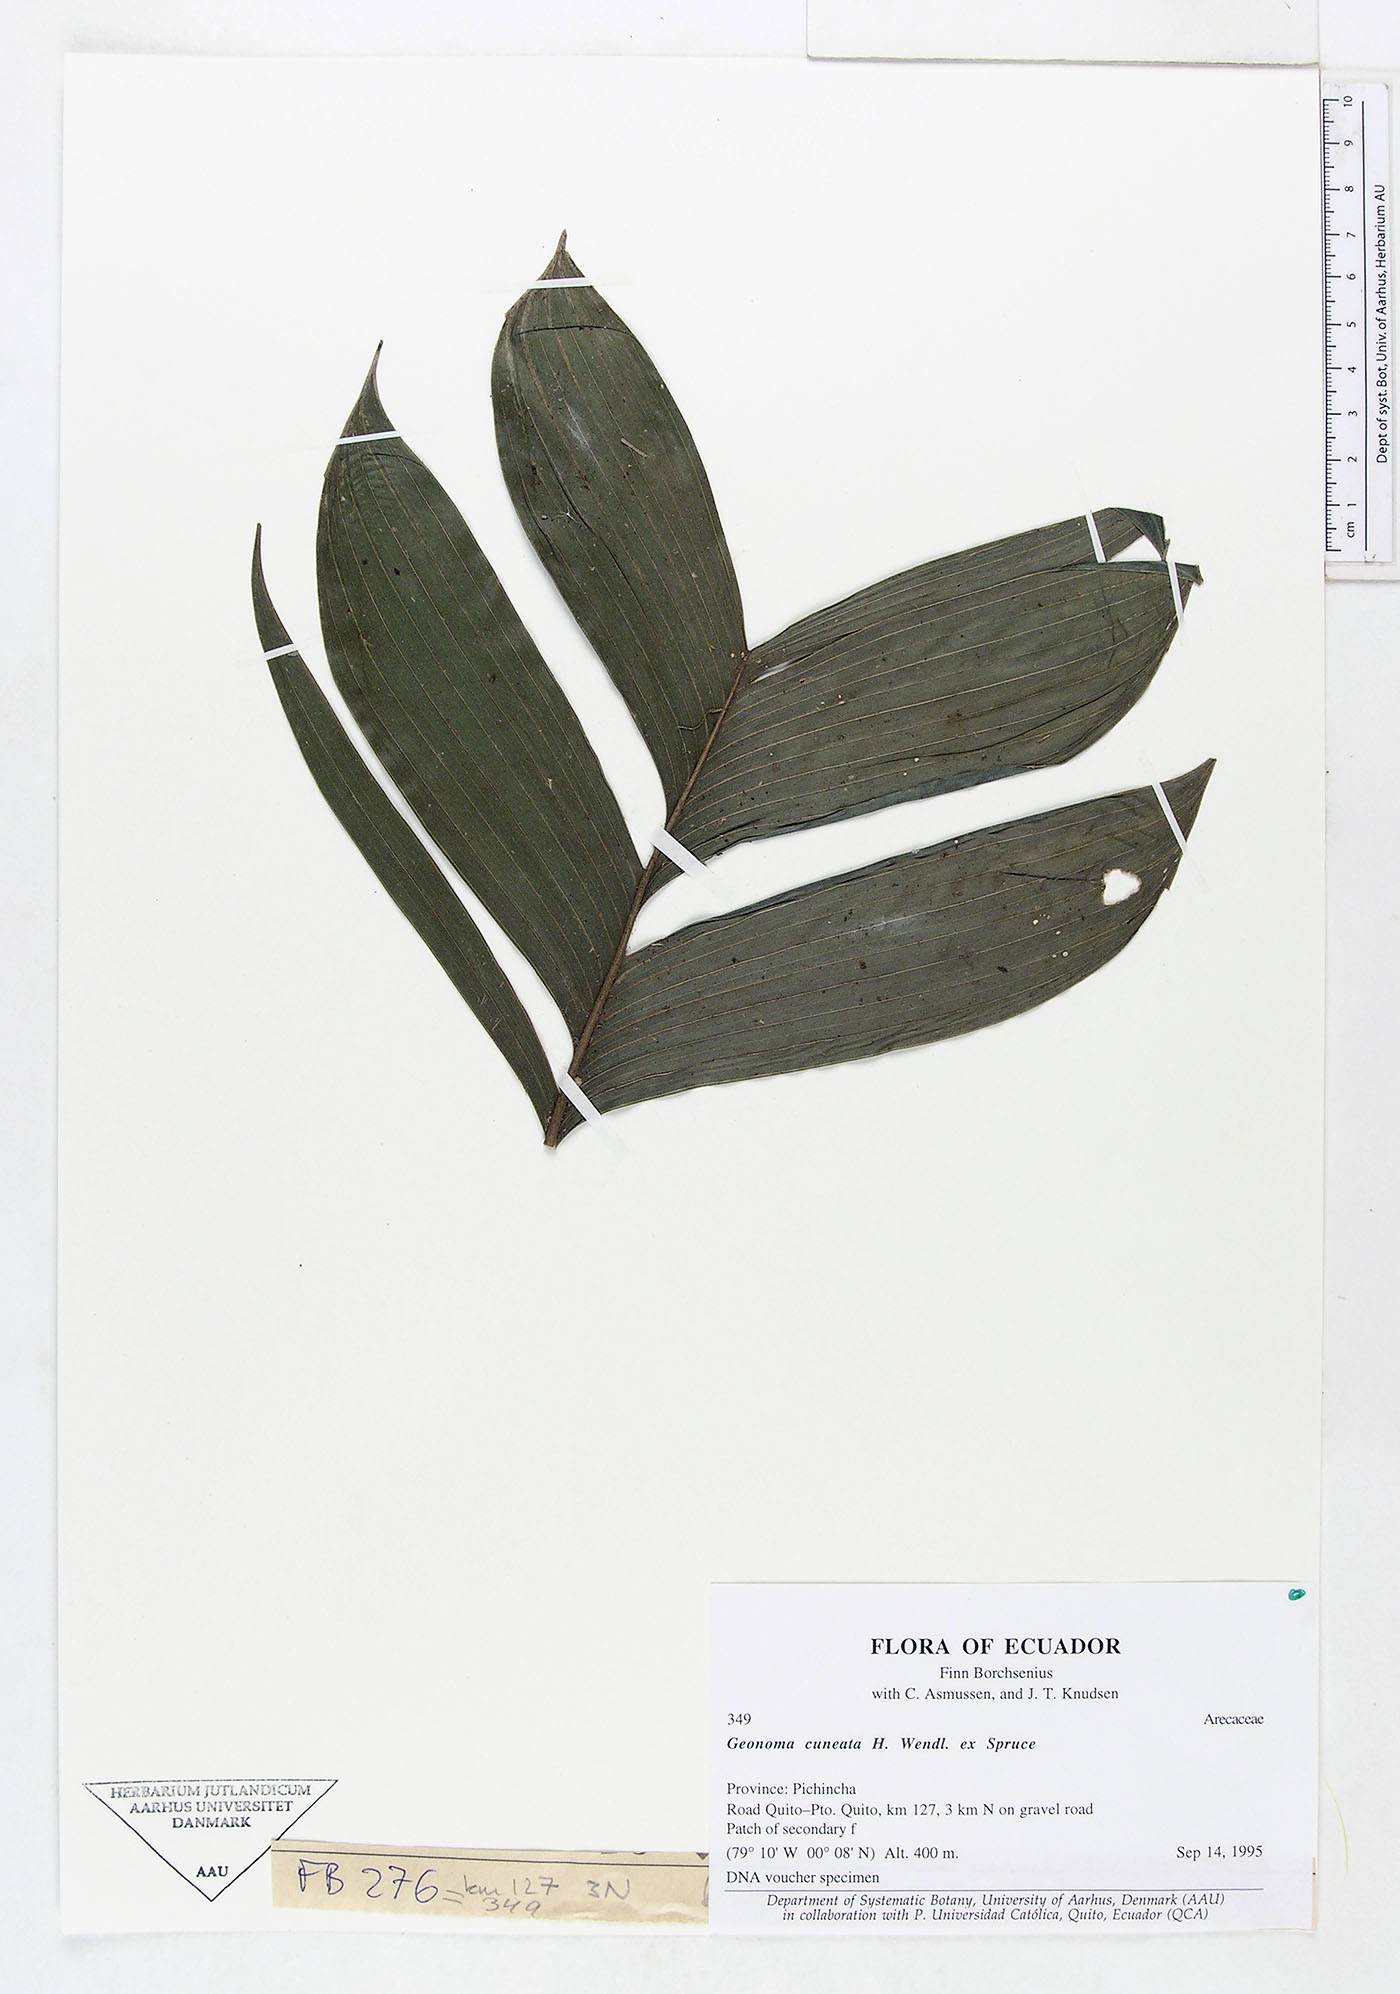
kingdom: Plantae
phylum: Tracheophyta
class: Liliopsida
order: Arecales
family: Arecaceae
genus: Geonoma
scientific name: Geonoma cuneata
